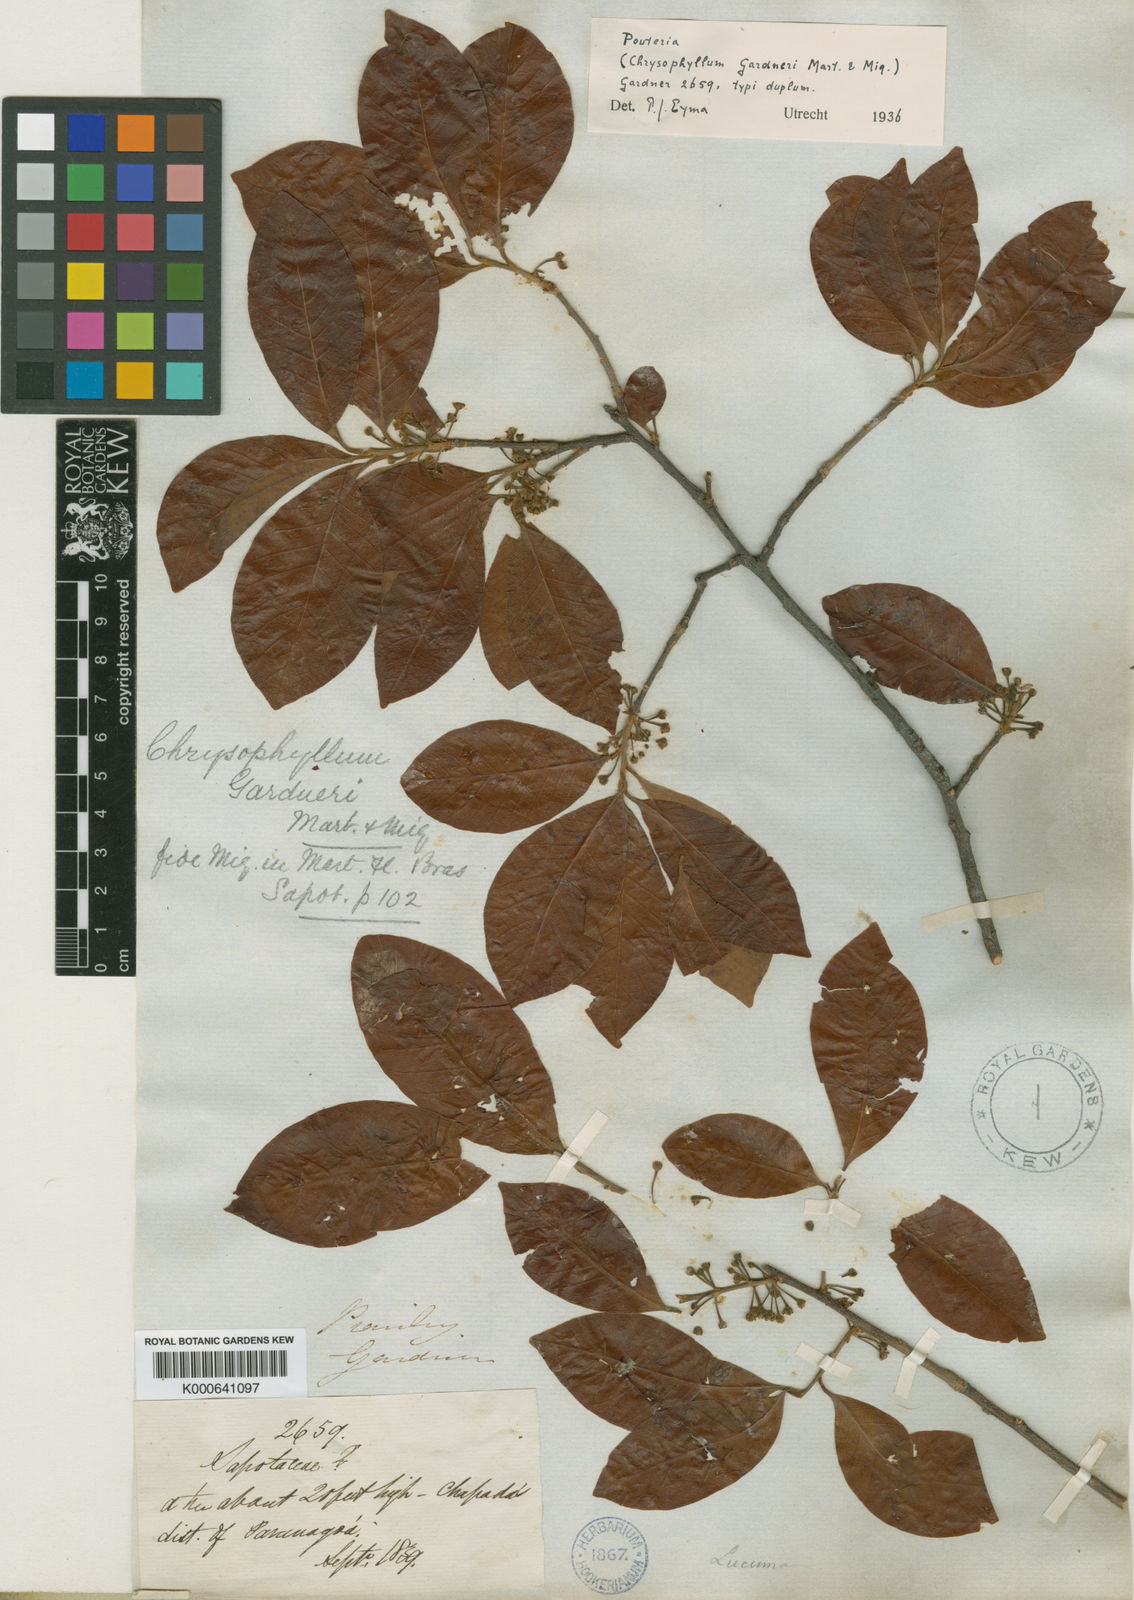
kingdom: Plantae
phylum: Tracheophyta
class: Magnoliopsida
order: Ericales
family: Sapotaceae
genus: Pouteria
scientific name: Pouteria gardneri
